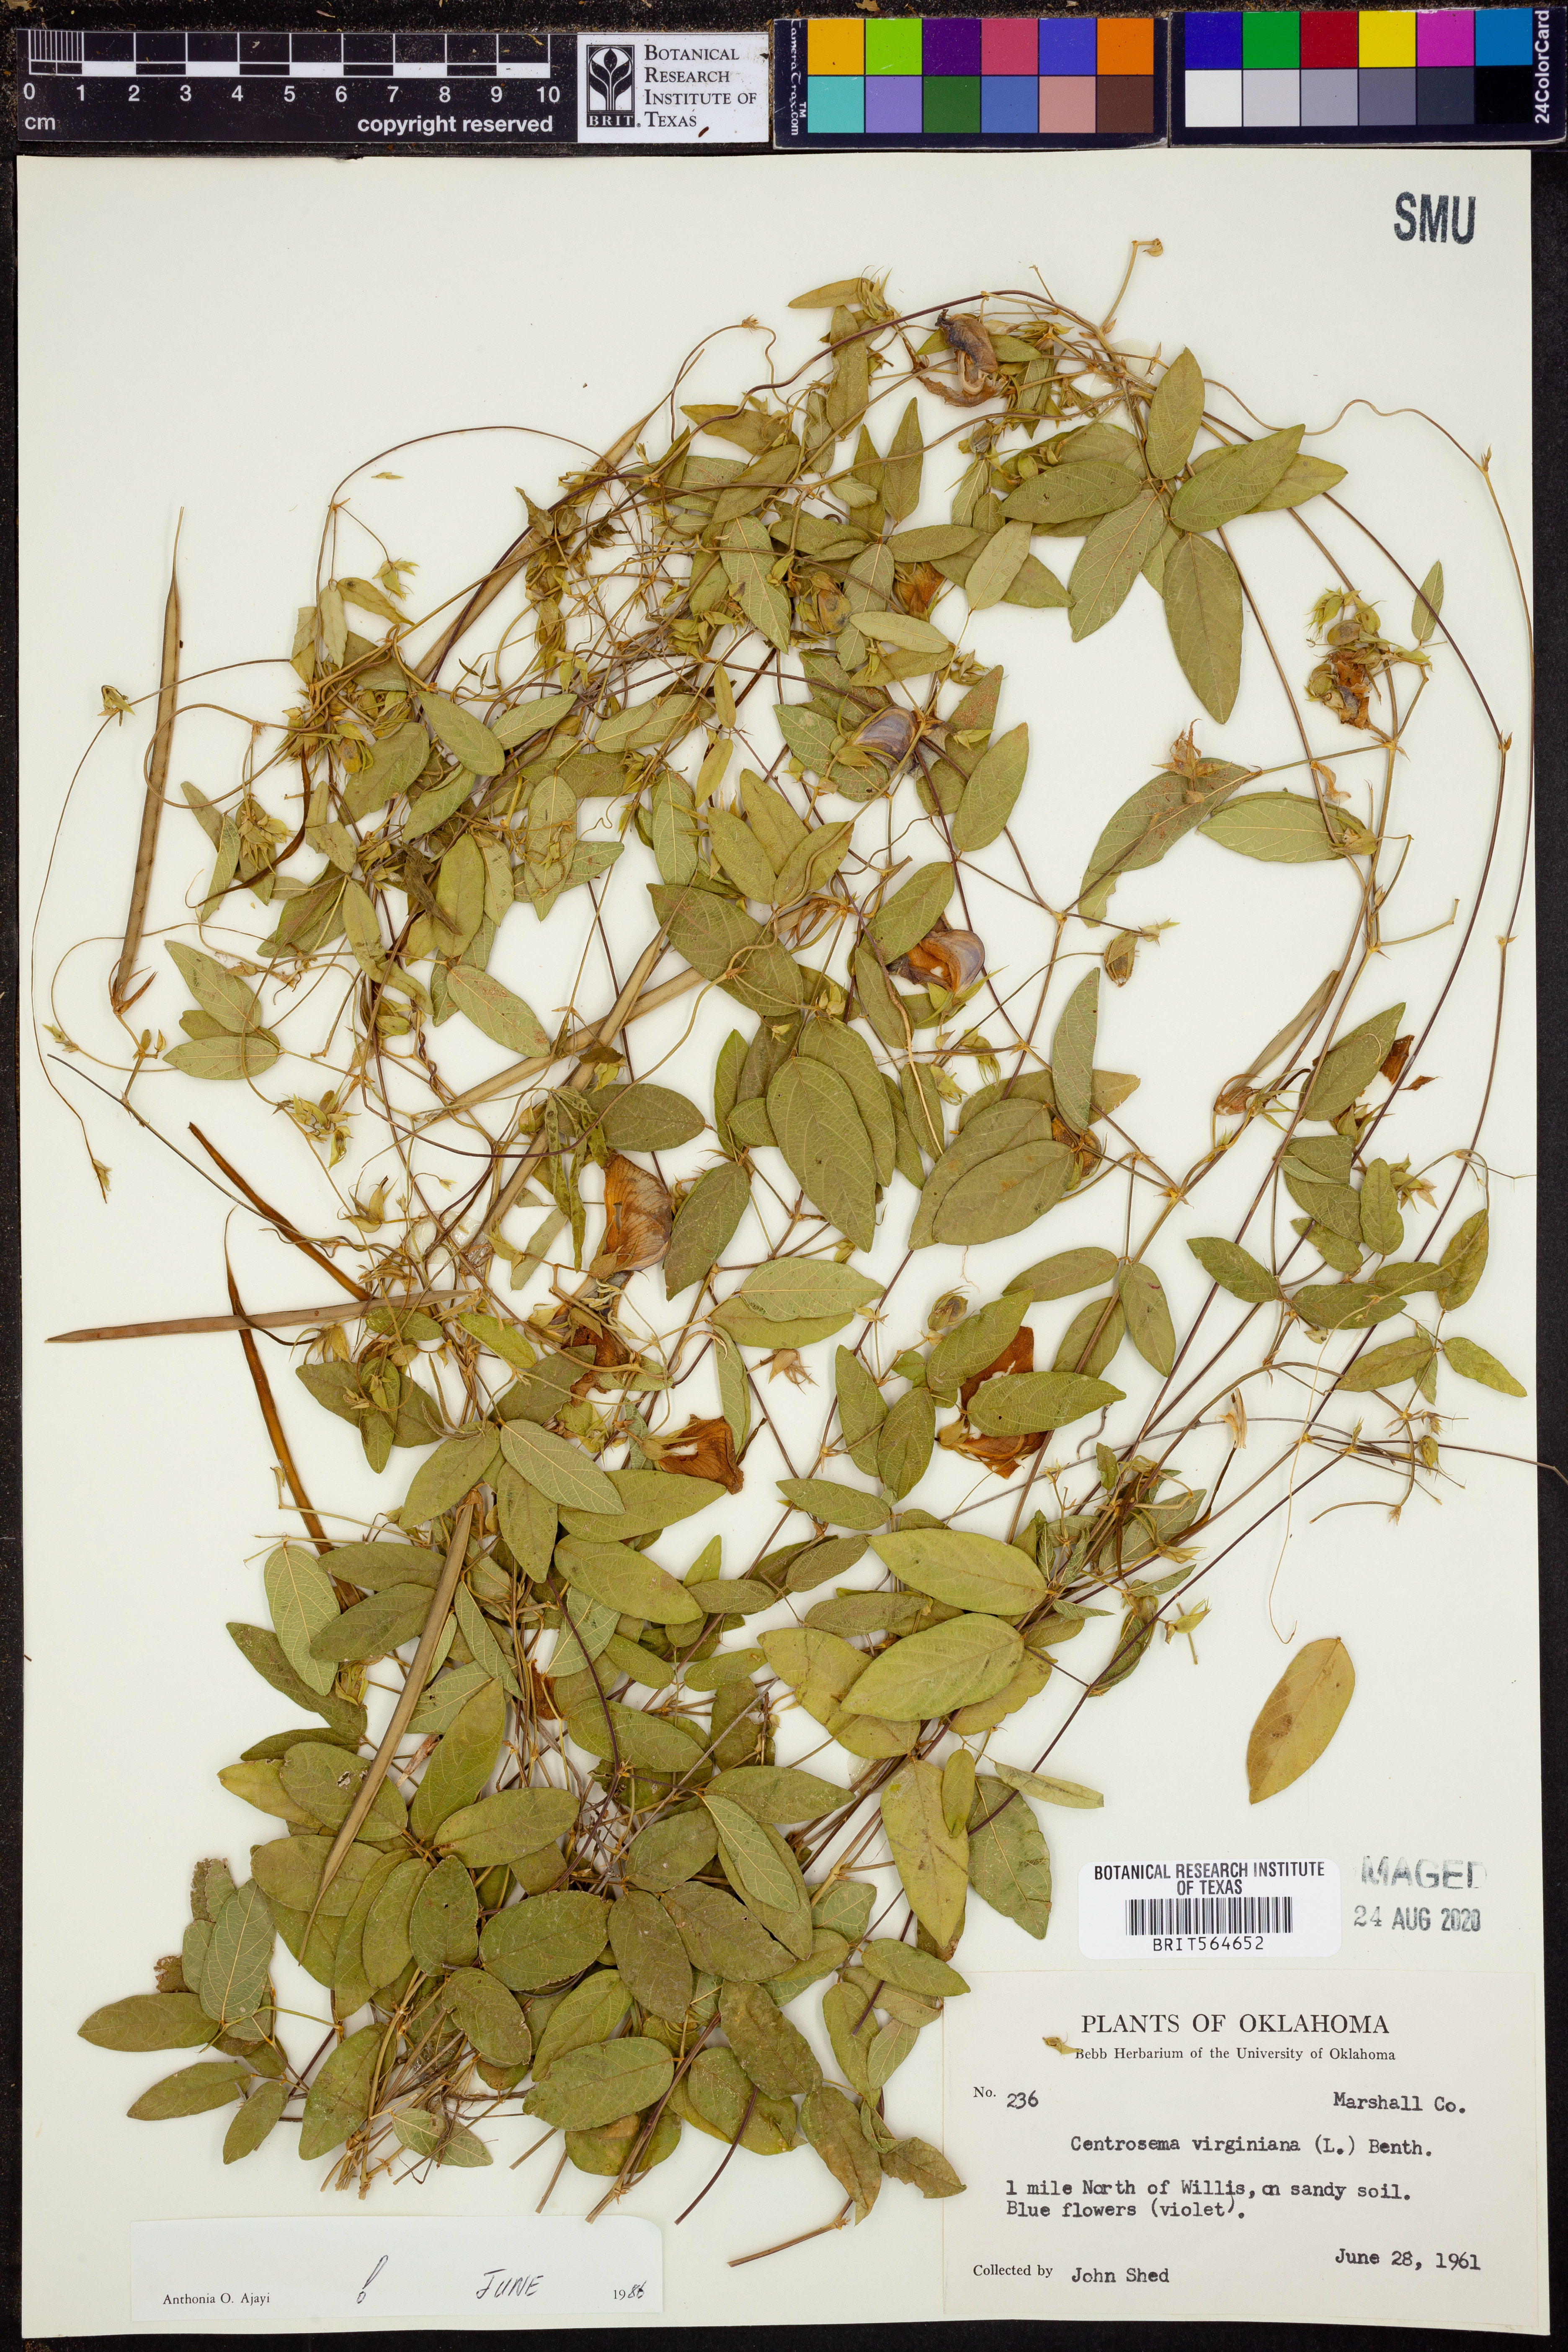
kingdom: Plantae
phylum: Tracheophyta
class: Magnoliopsida
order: Fabales
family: Fabaceae
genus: Centrosema
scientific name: Centrosema virginianum
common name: Butterfly-pea
